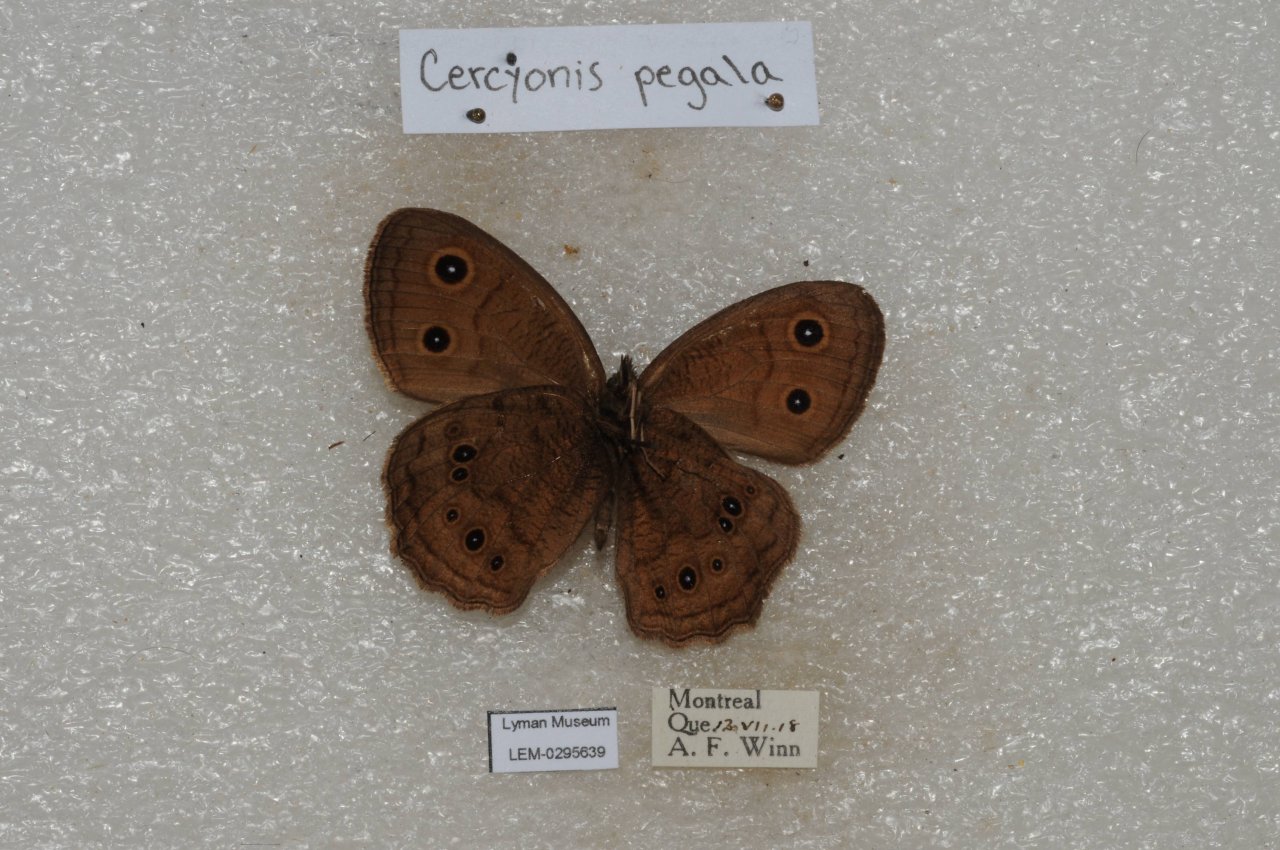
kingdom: Animalia
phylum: Arthropoda
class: Insecta
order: Lepidoptera
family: Nymphalidae
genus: Cercyonis
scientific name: Cercyonis pegala
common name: Common Wood-Nymph
